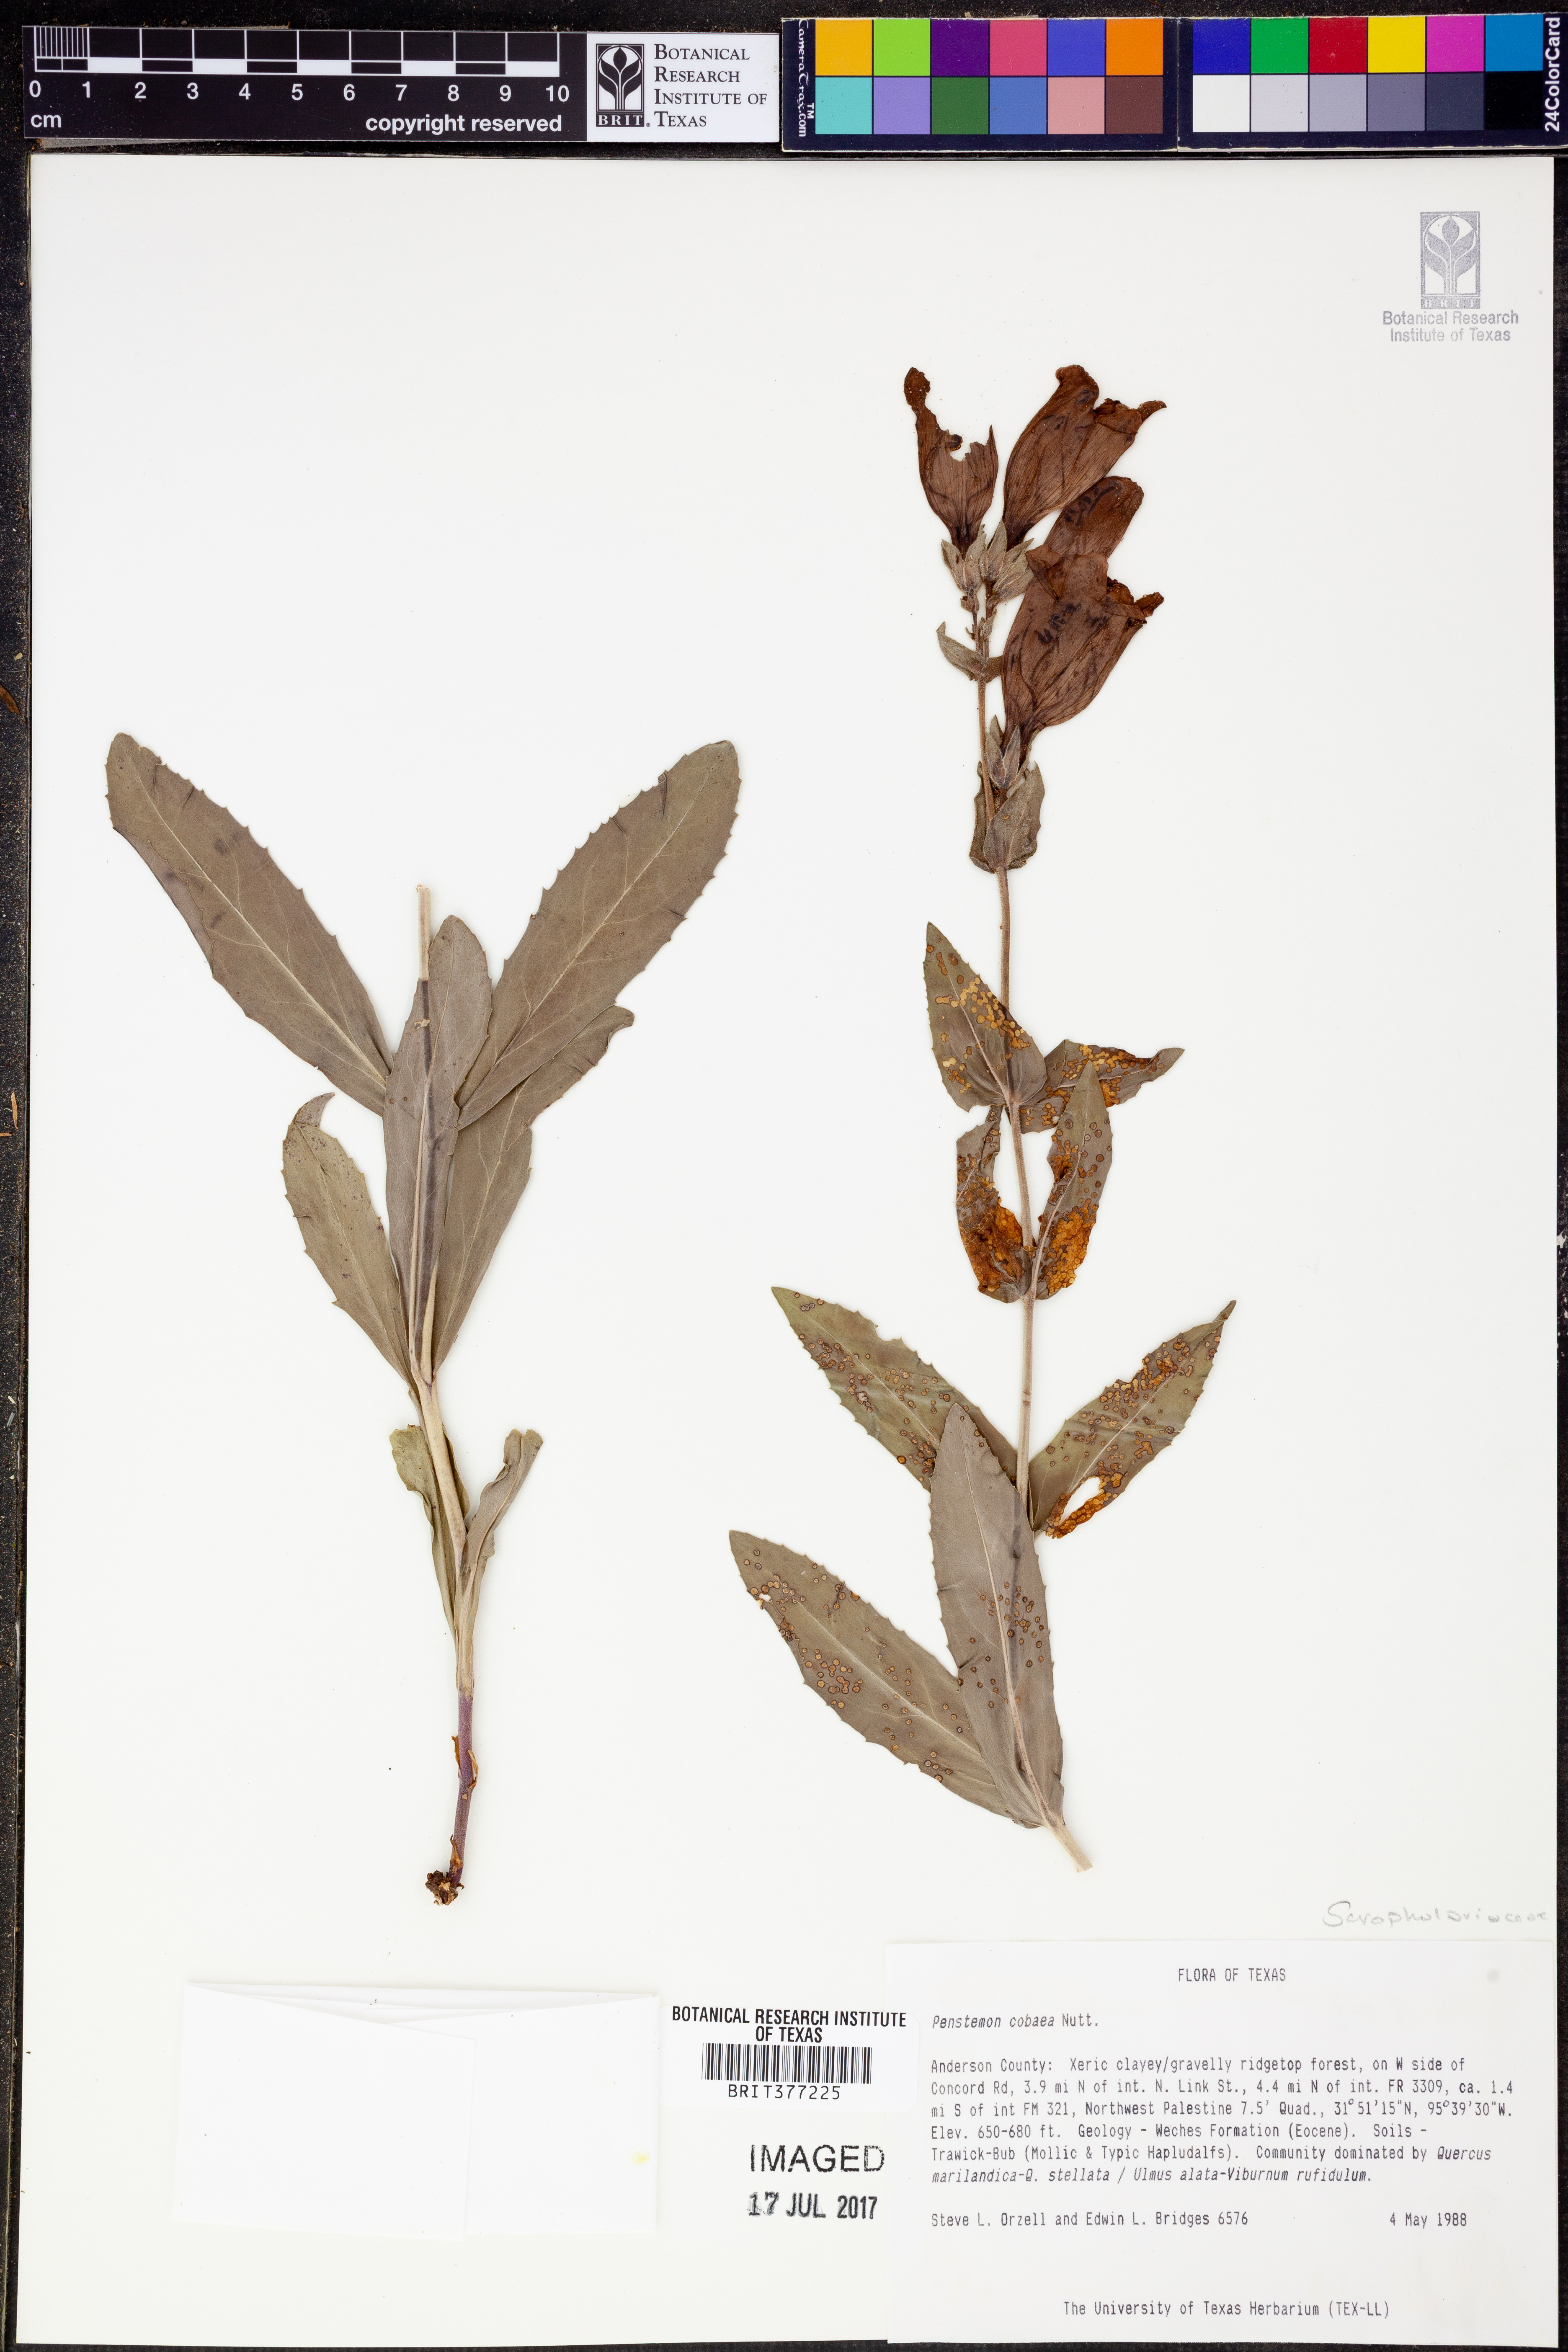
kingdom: Plantae
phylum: Tracheophyta
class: Magnoliopsida
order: Lamiales
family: Plantaginaceae
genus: Penstemon
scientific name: Penstemon cobaea
